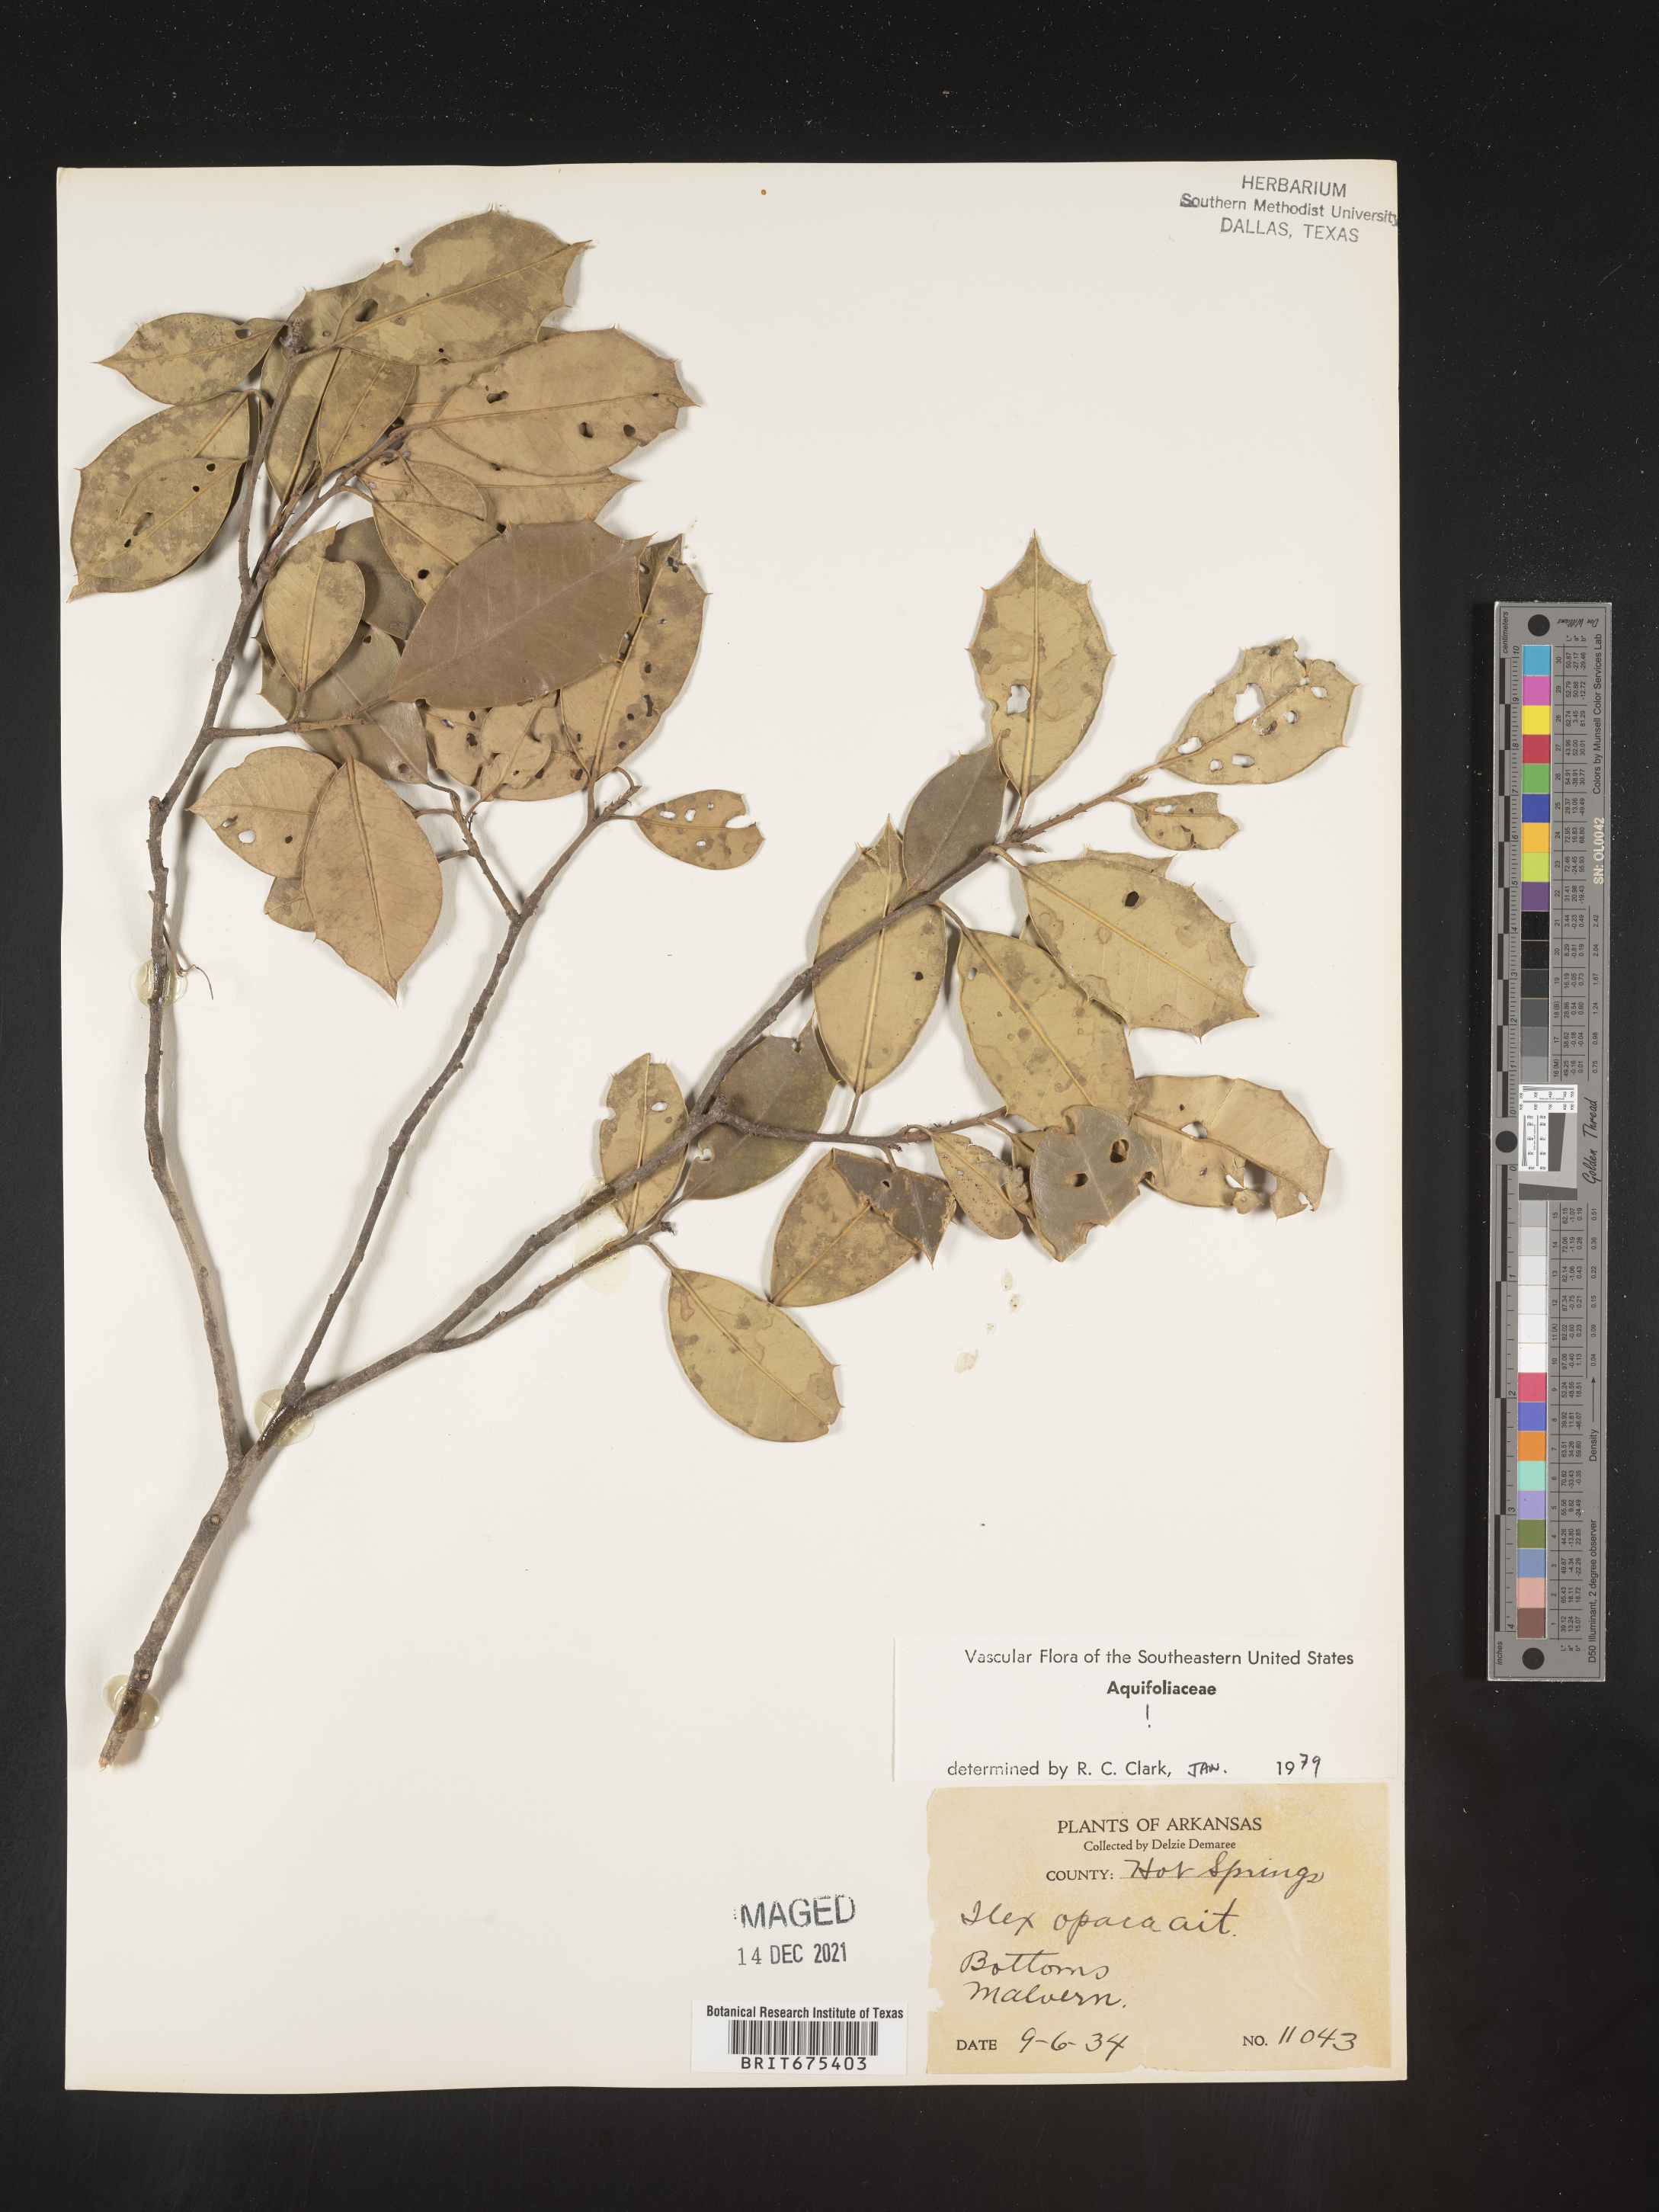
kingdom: Plantae
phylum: Tracheophyta
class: Magnoliopsida
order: Aquifoliales
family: Aquifoliaceae
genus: Ilex
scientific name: Ilex opaca
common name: American holly
